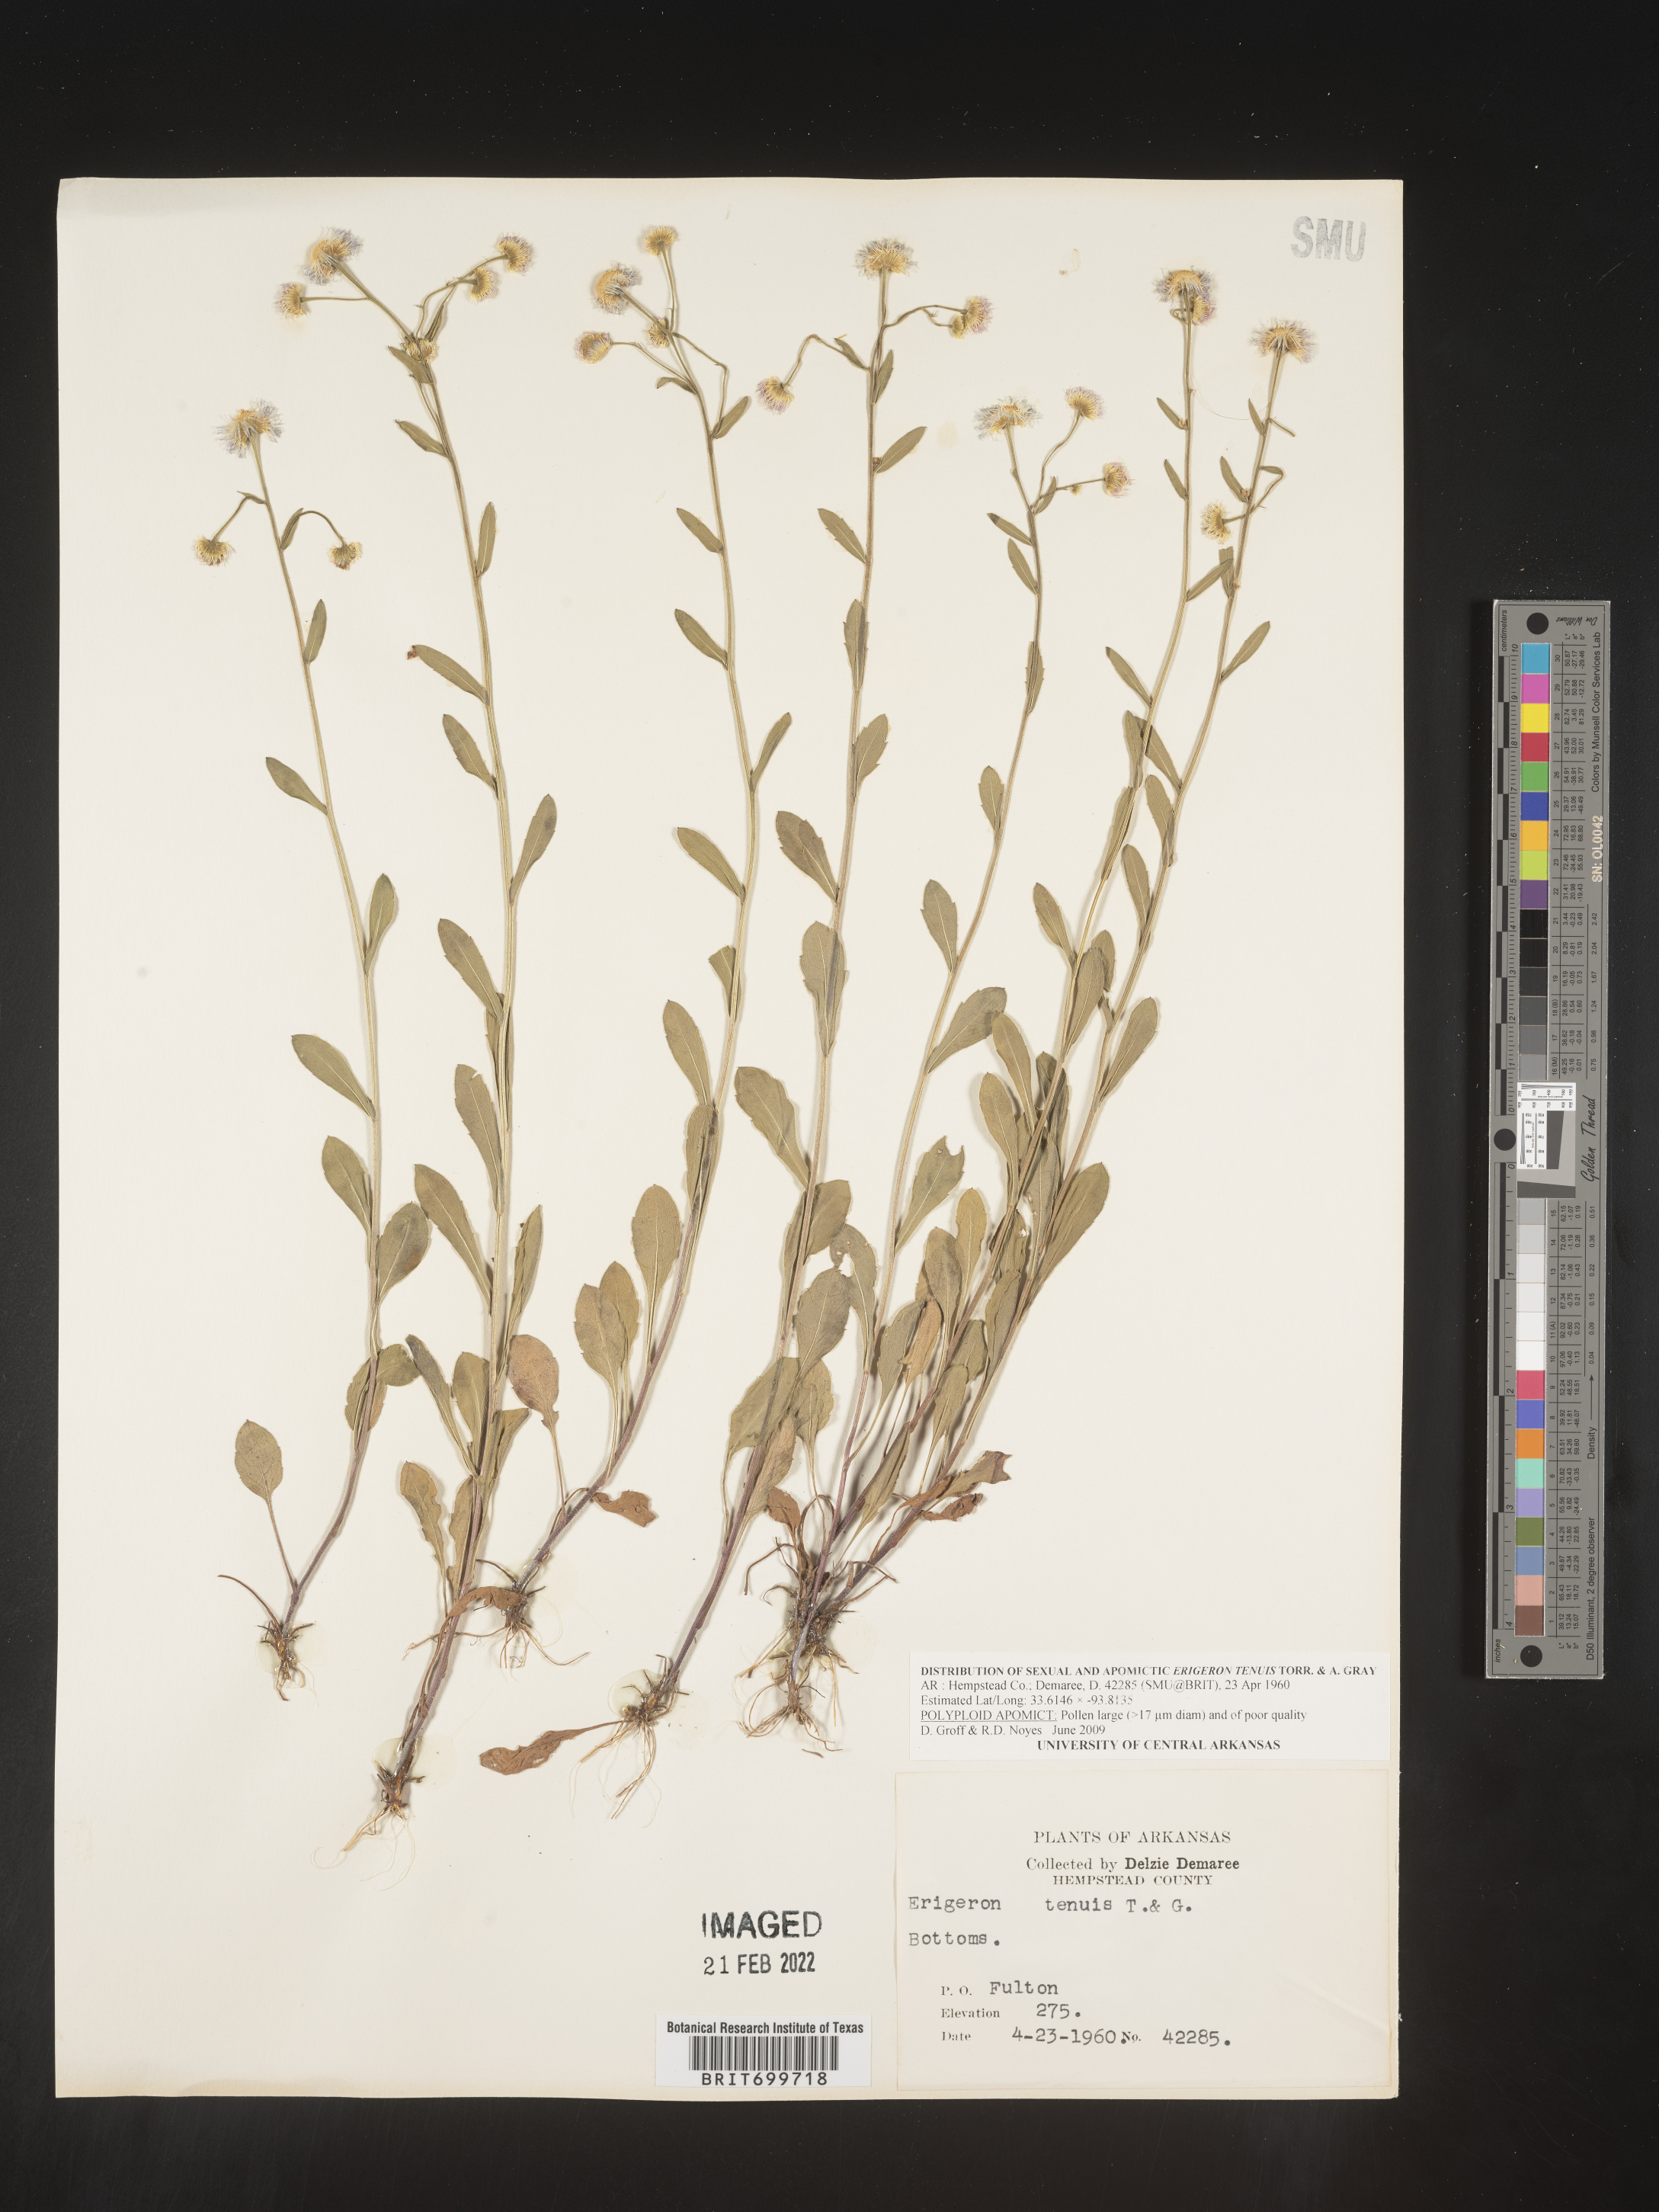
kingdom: Plantae
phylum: Tracheophyta
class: Magnoliopsida
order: Asterales
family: Asteraceae
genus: Erigeron
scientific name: Erigeron tenuis
